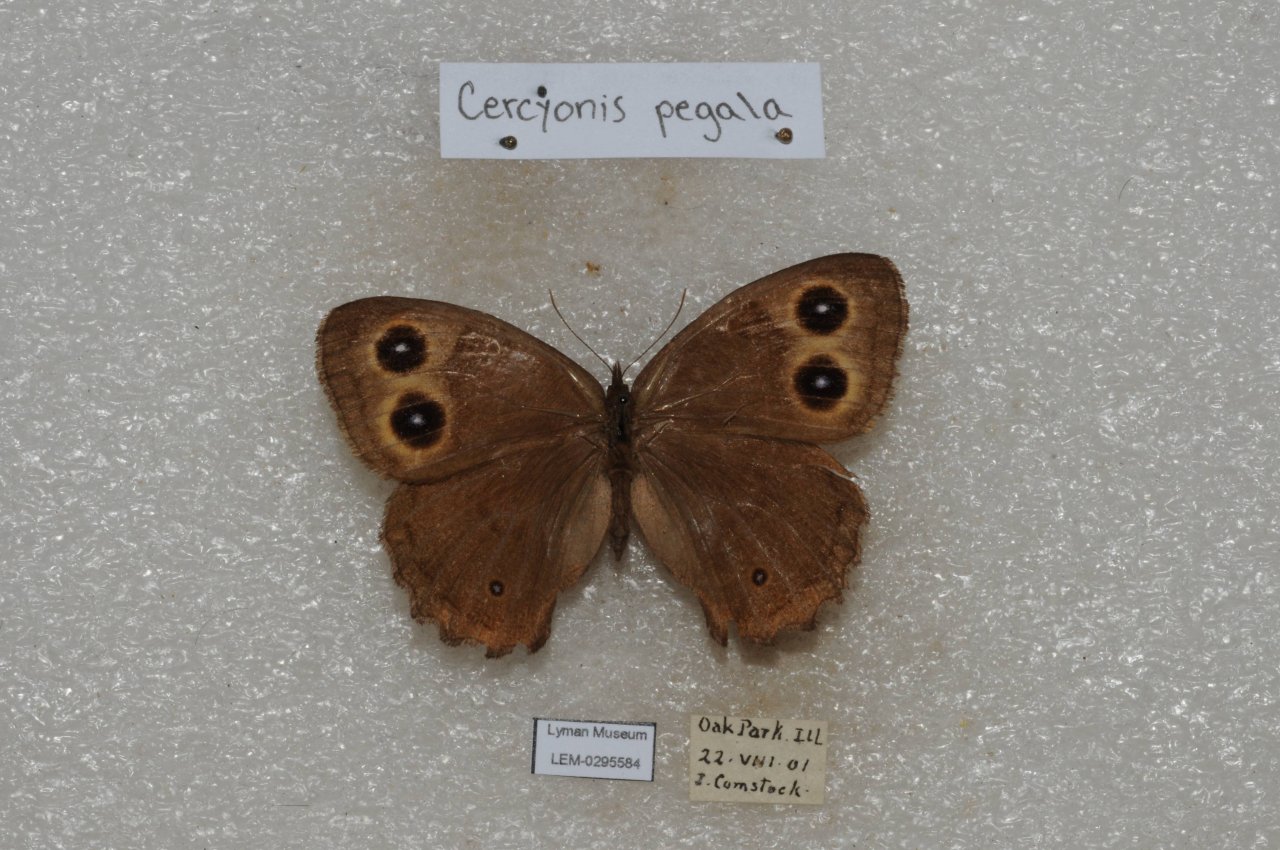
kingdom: Animalia
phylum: Arthropoda
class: Insecta
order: Lepidoptera
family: Nymphalidae
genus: Cercyonis
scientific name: Cercyonis pegala
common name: Common Wood-Nymph
